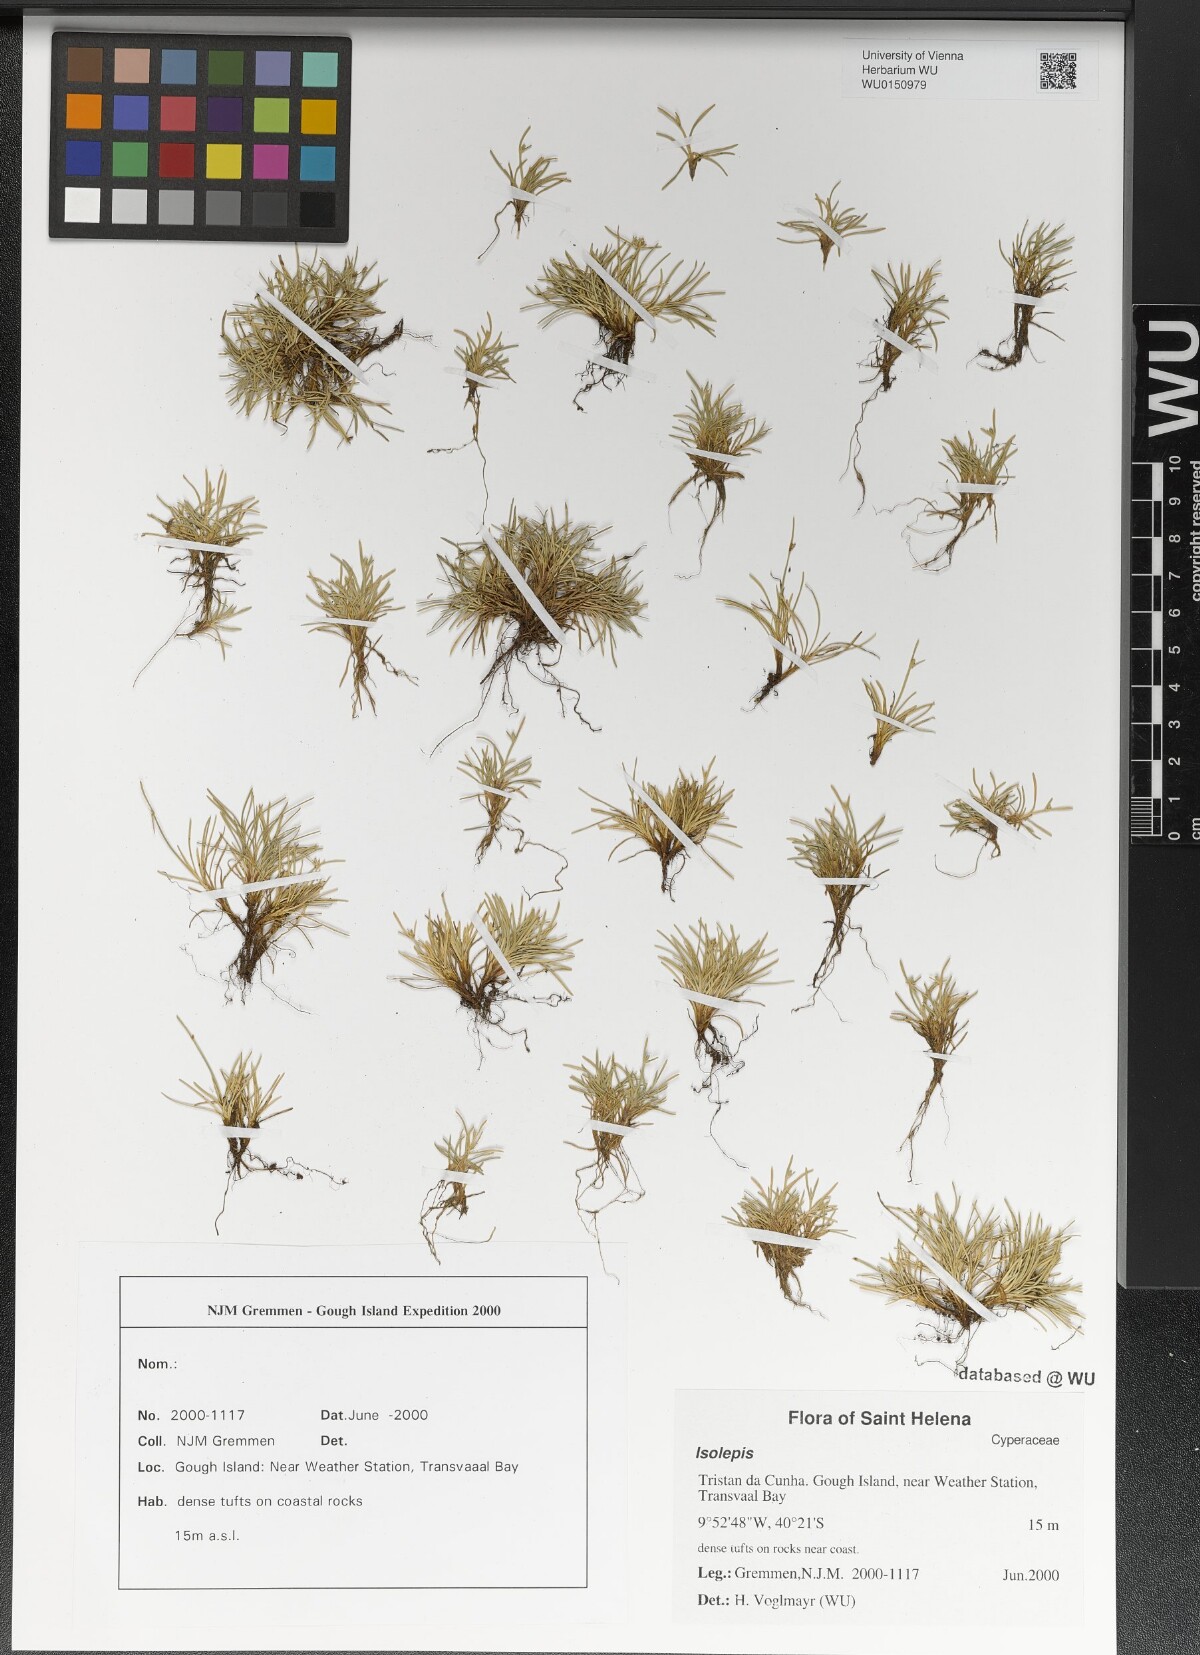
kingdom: Plantae
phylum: Tracheophyta
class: Liliopsida
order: Poales
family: Cyperaceae
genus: Isolepis
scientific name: Isolepis
